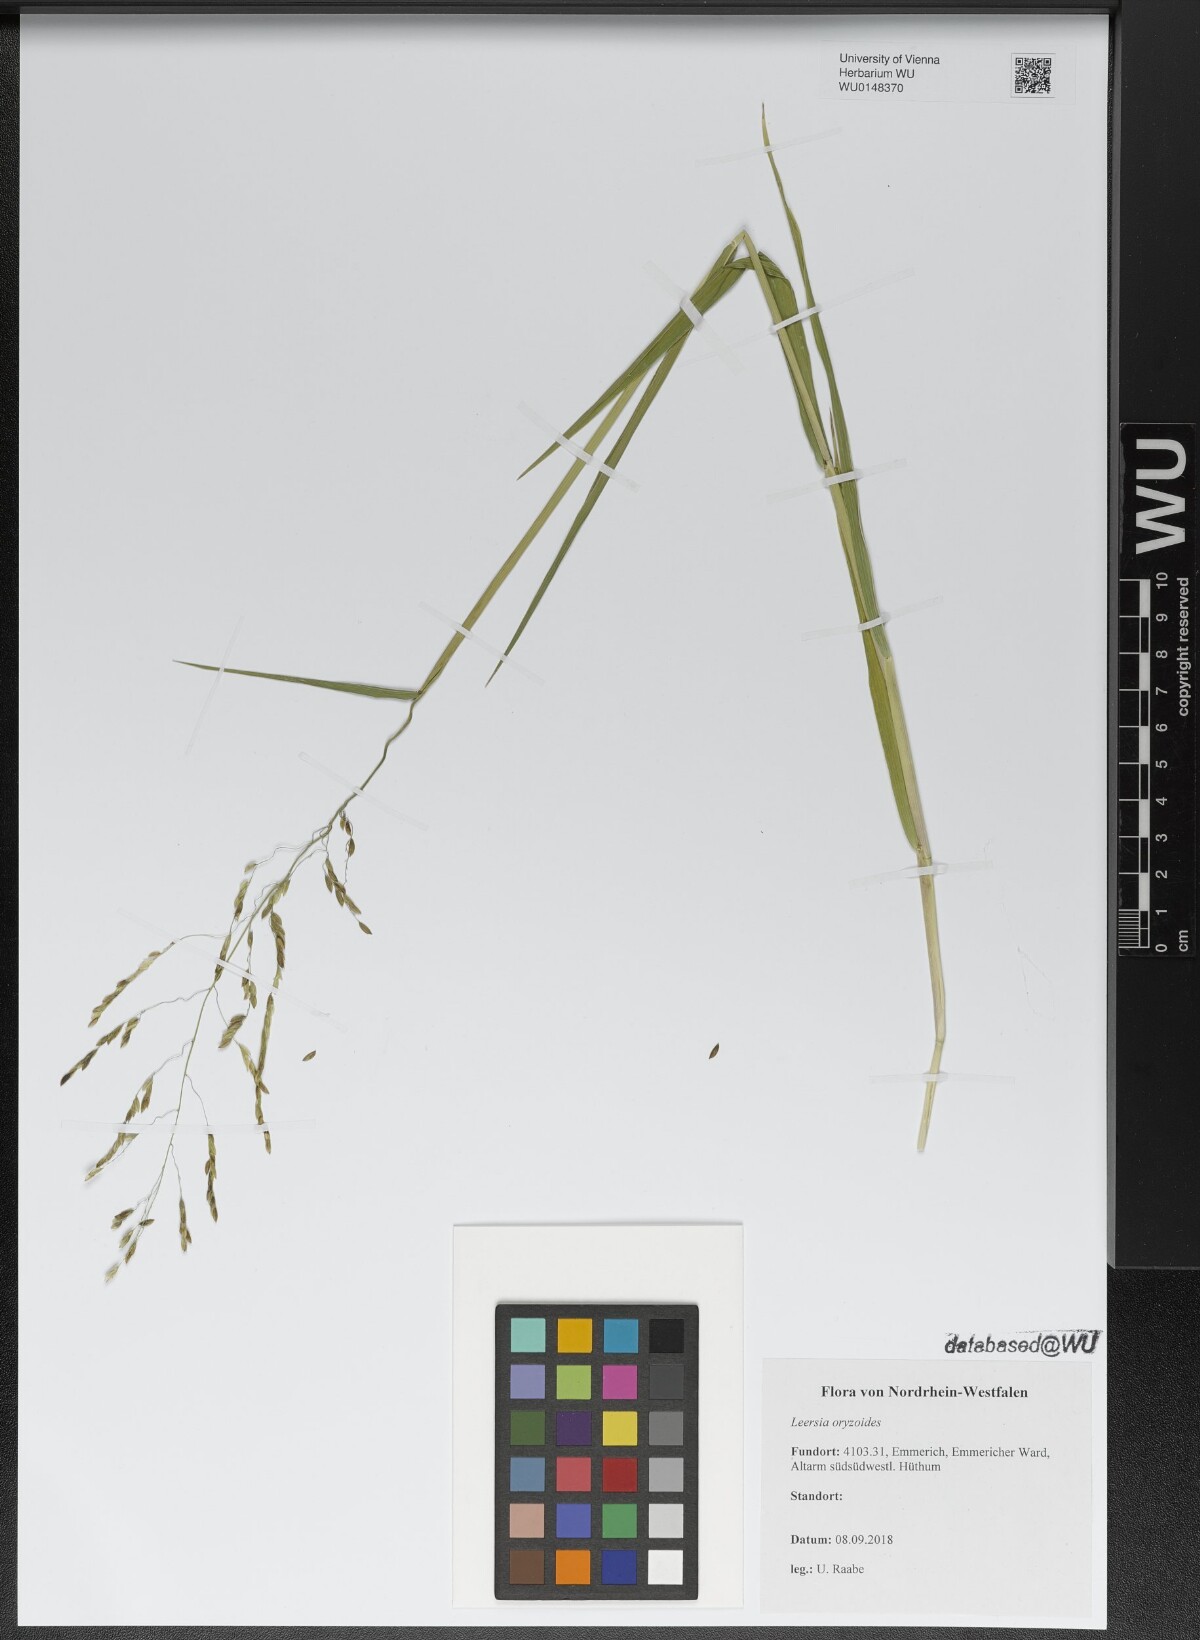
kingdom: Plantae
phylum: Tracheophyta
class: Liliopsida
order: Poales
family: Poaceae
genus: Leersia
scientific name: Leersia oryzoides
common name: Cut-grass
